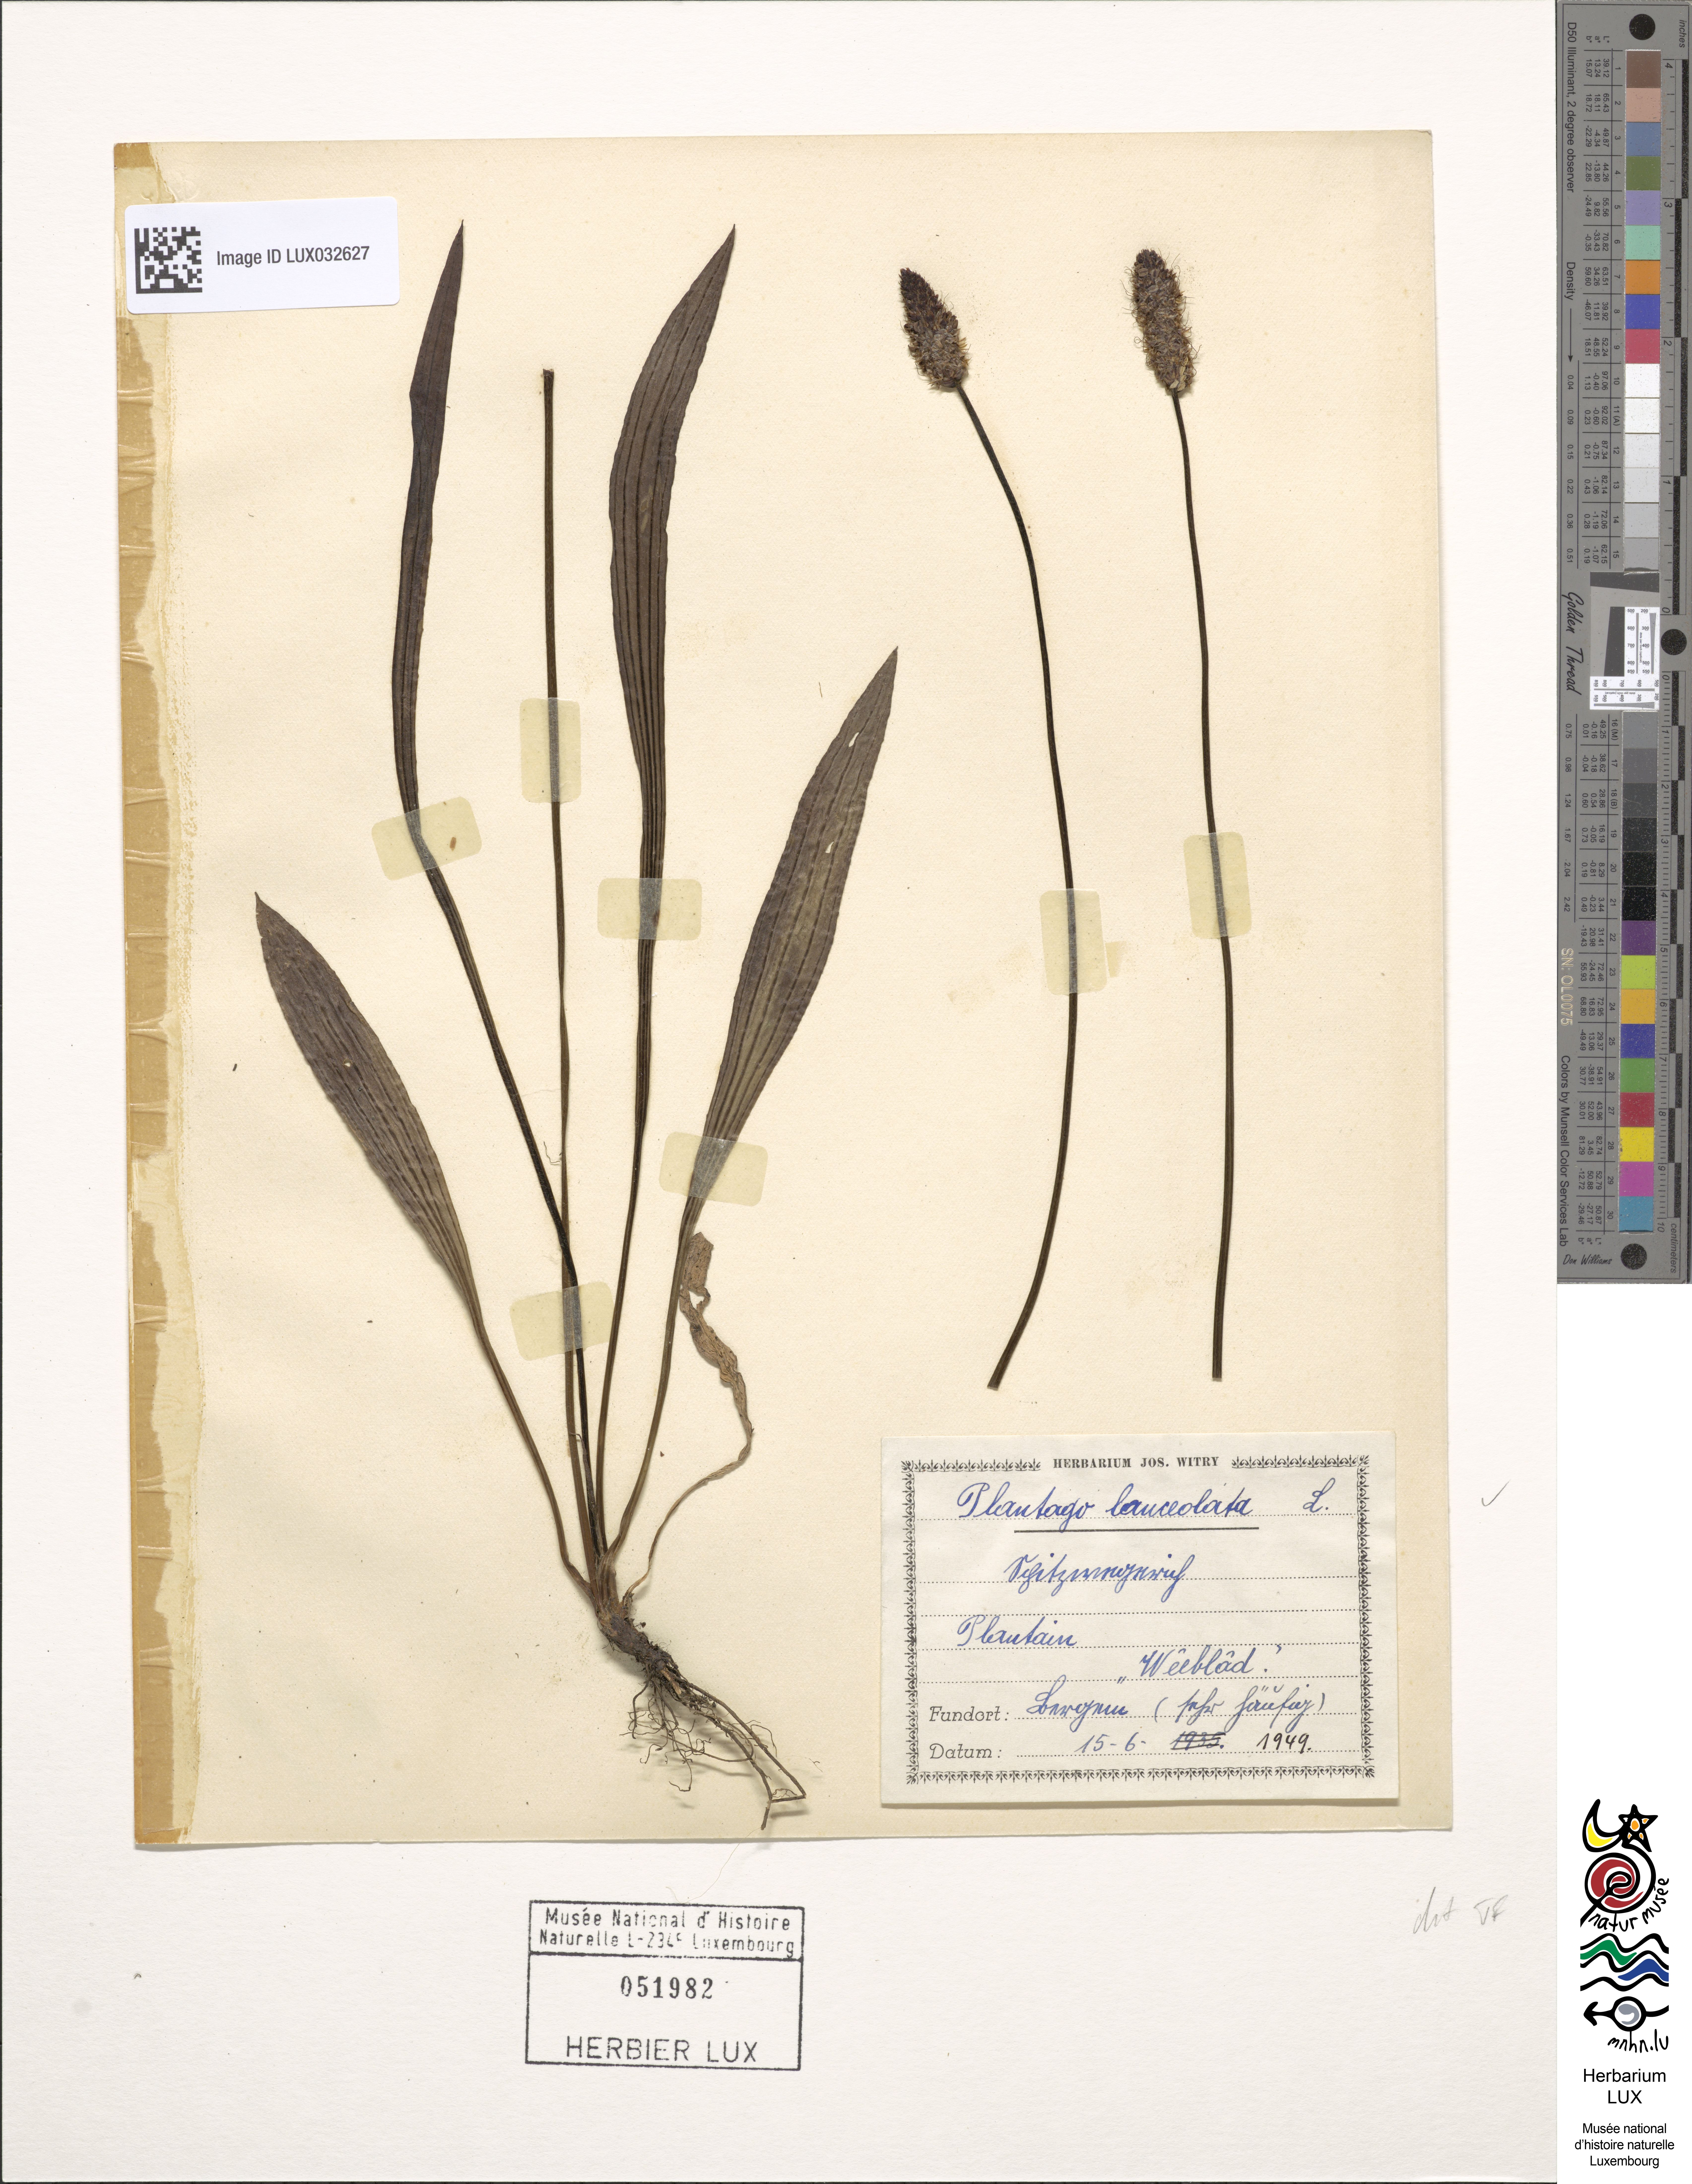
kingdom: Plantae
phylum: Tracheophyta
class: Magnoliopsida
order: Lamiales
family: Plantaginaceae
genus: Plantago
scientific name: Plantago lanceolata
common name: Ribwort plantain
